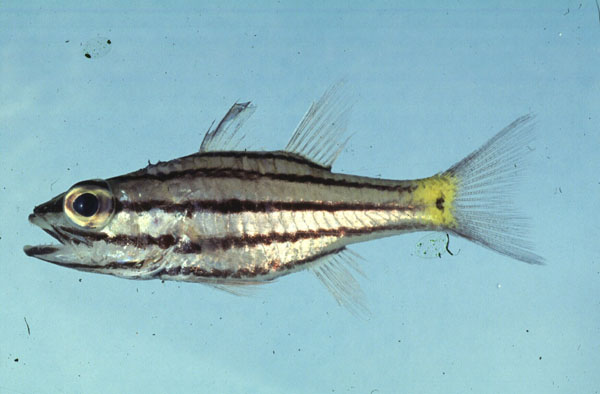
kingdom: Animalia
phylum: Chordata
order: Perciformes
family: Apogonidae
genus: Cheilodipterus
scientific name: Cheilodipterus quinquelineatus
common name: Five-lined cardinalfish
